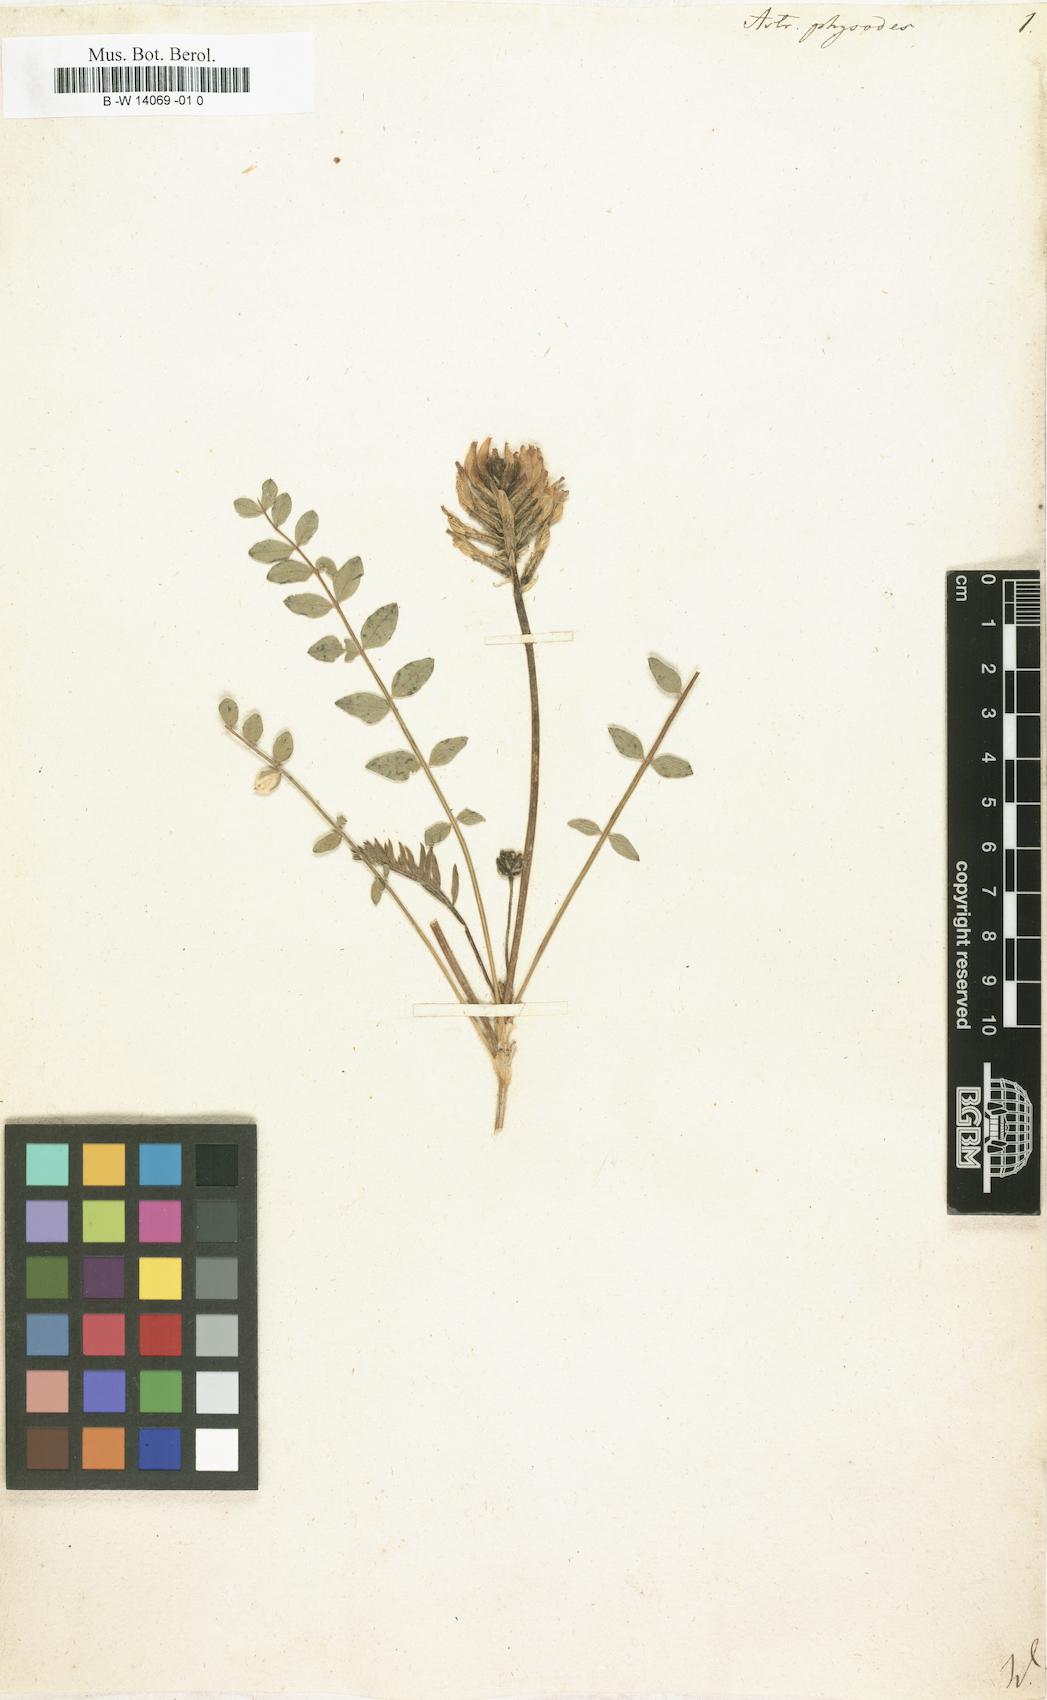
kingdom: Plantae
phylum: Tracheophyta
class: Magnoliopsida
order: Fabales
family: Fabaceae
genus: Astragalus
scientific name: Astragalus physodes
